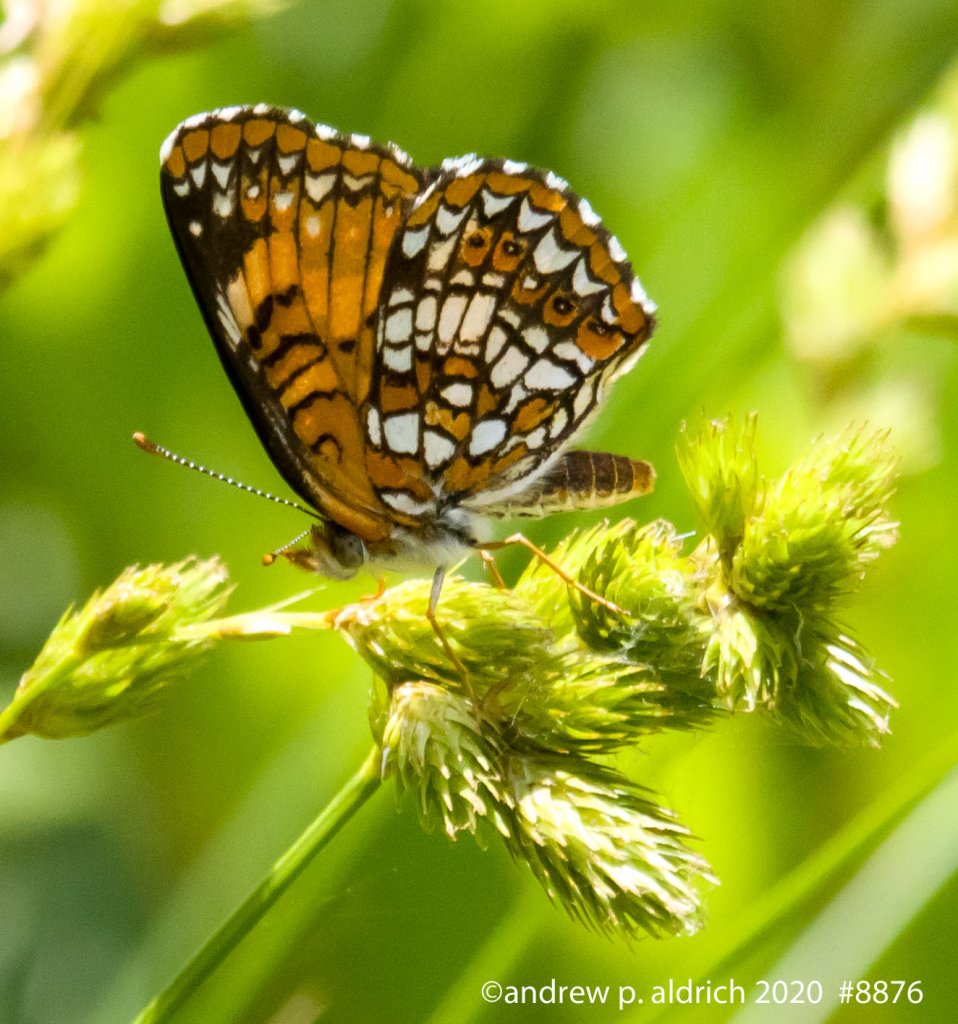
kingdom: Animalia
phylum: Arthropoda
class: Insecta
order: Lepidoptera
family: Nymphalidae
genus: Chlosyne
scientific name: Chlosyne harrisii
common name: Harris's Checkerspot
